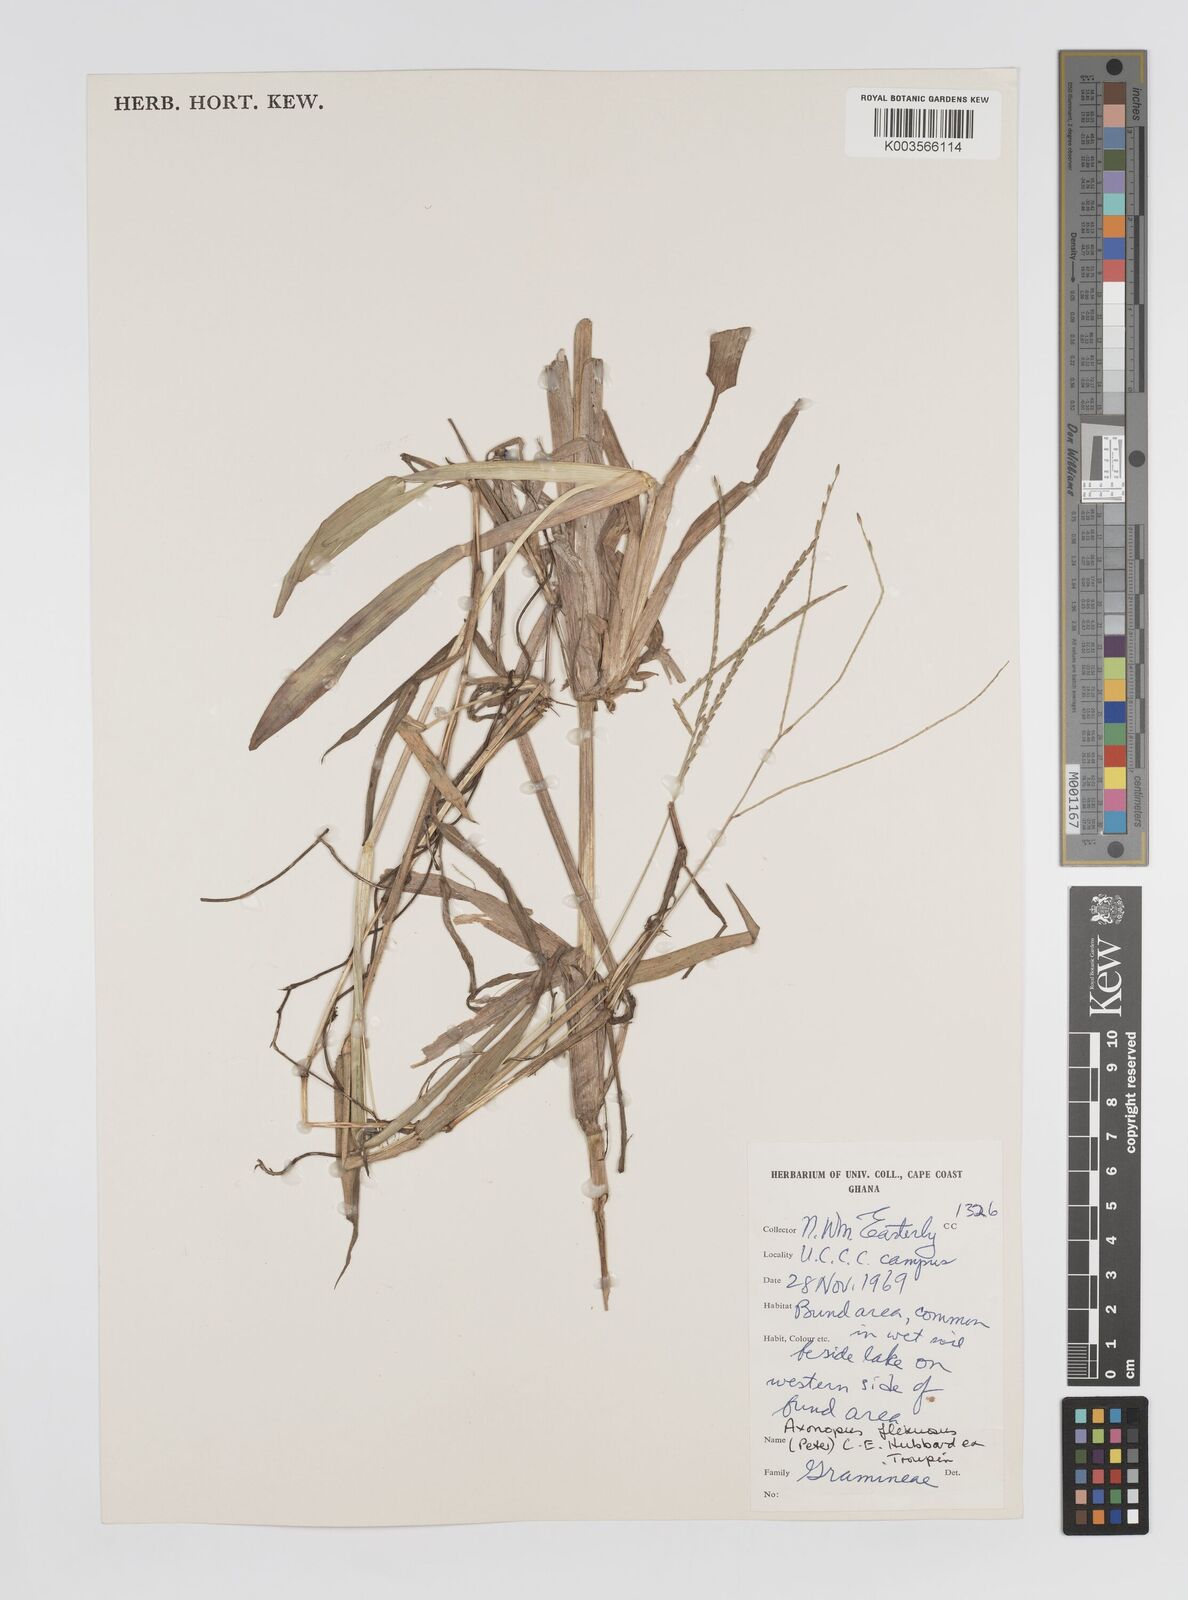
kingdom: Plantae
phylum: Tracheophyta
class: Liliopsida
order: Poales
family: Poaceae
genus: Axonopus
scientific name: Axonopus flexuosus
